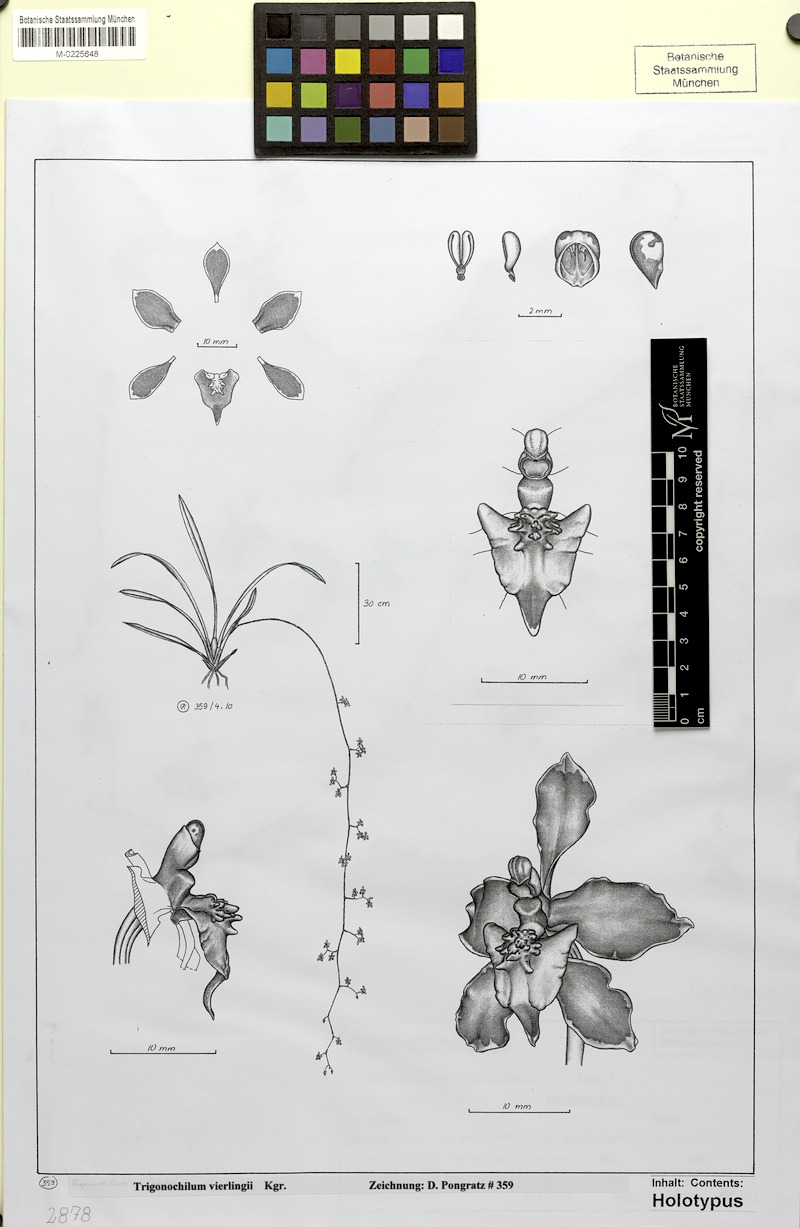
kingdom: Plantae
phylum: Tracheophyta
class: Liliopsida
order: Asparagales
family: Orchidaceae
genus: Cyrtochilum
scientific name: Cyrtochilum deuterovierlingii
